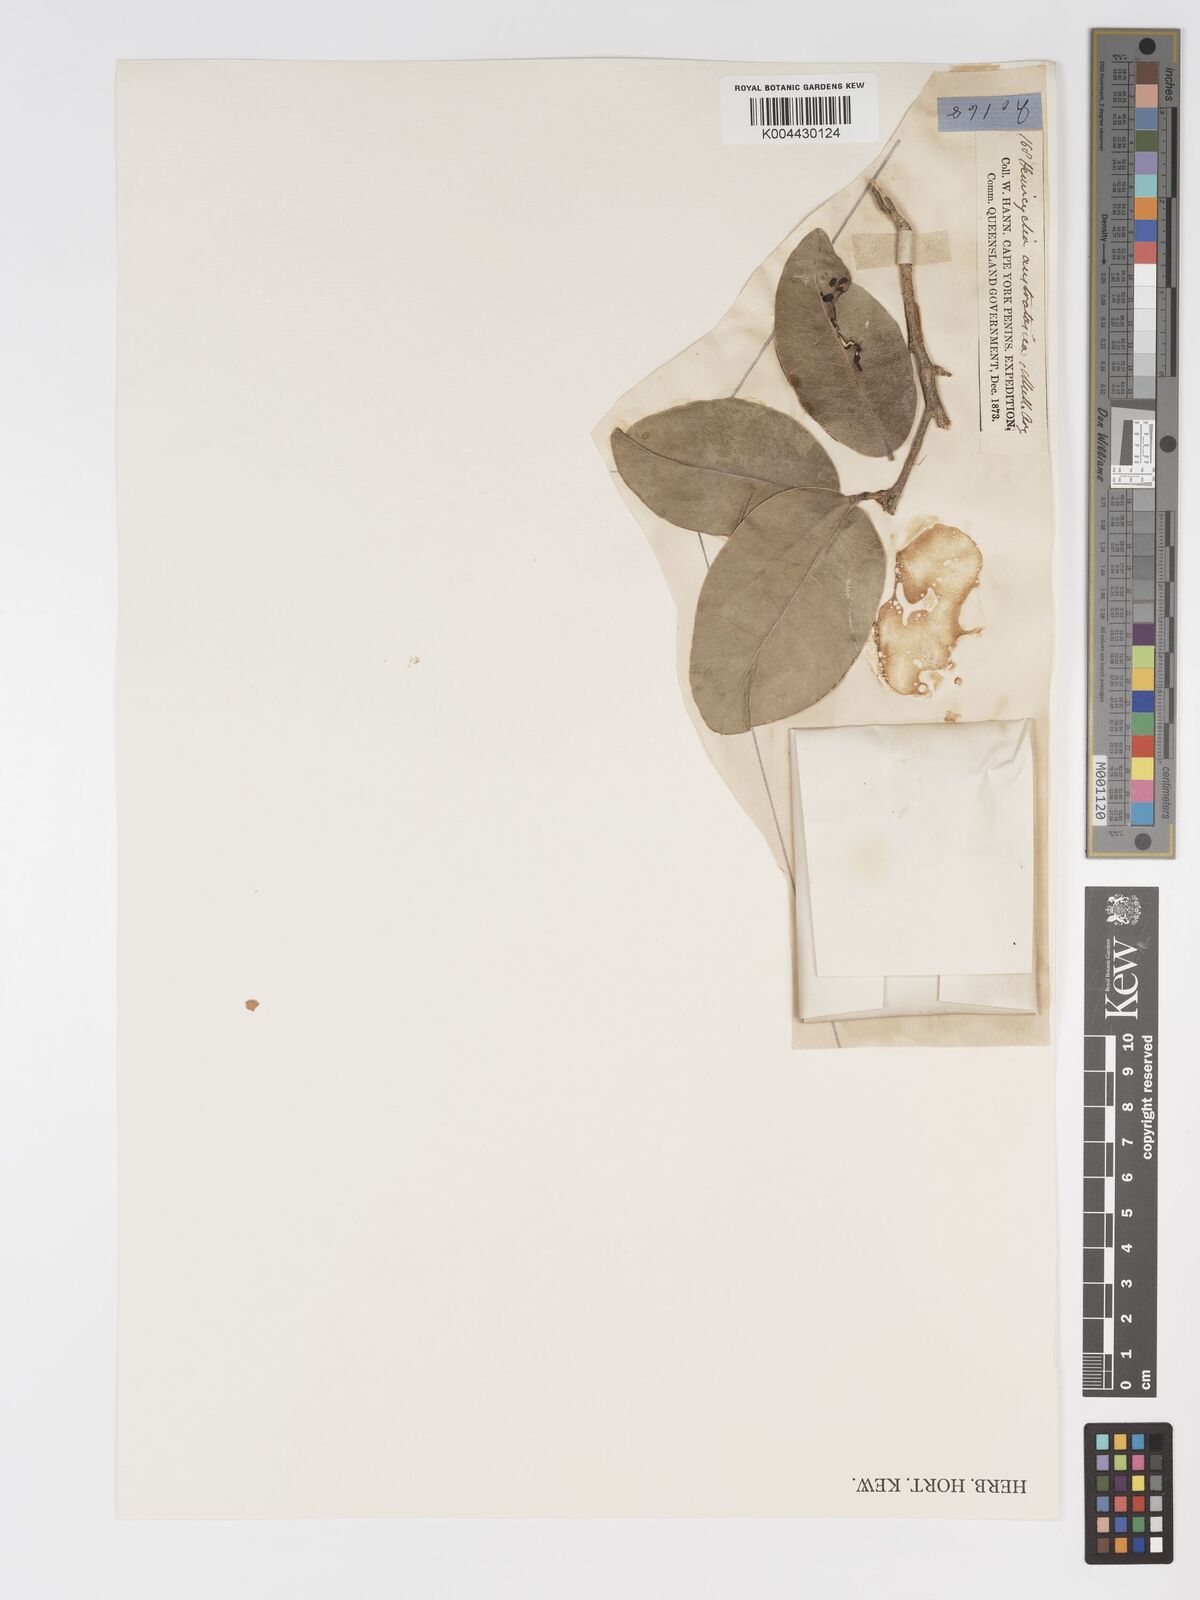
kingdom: Plantae
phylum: Tracheophyta
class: Magnoliopsida
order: Malpighiales
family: Putranjivaceae
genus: Drypetes
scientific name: Drypetes deplanchei
